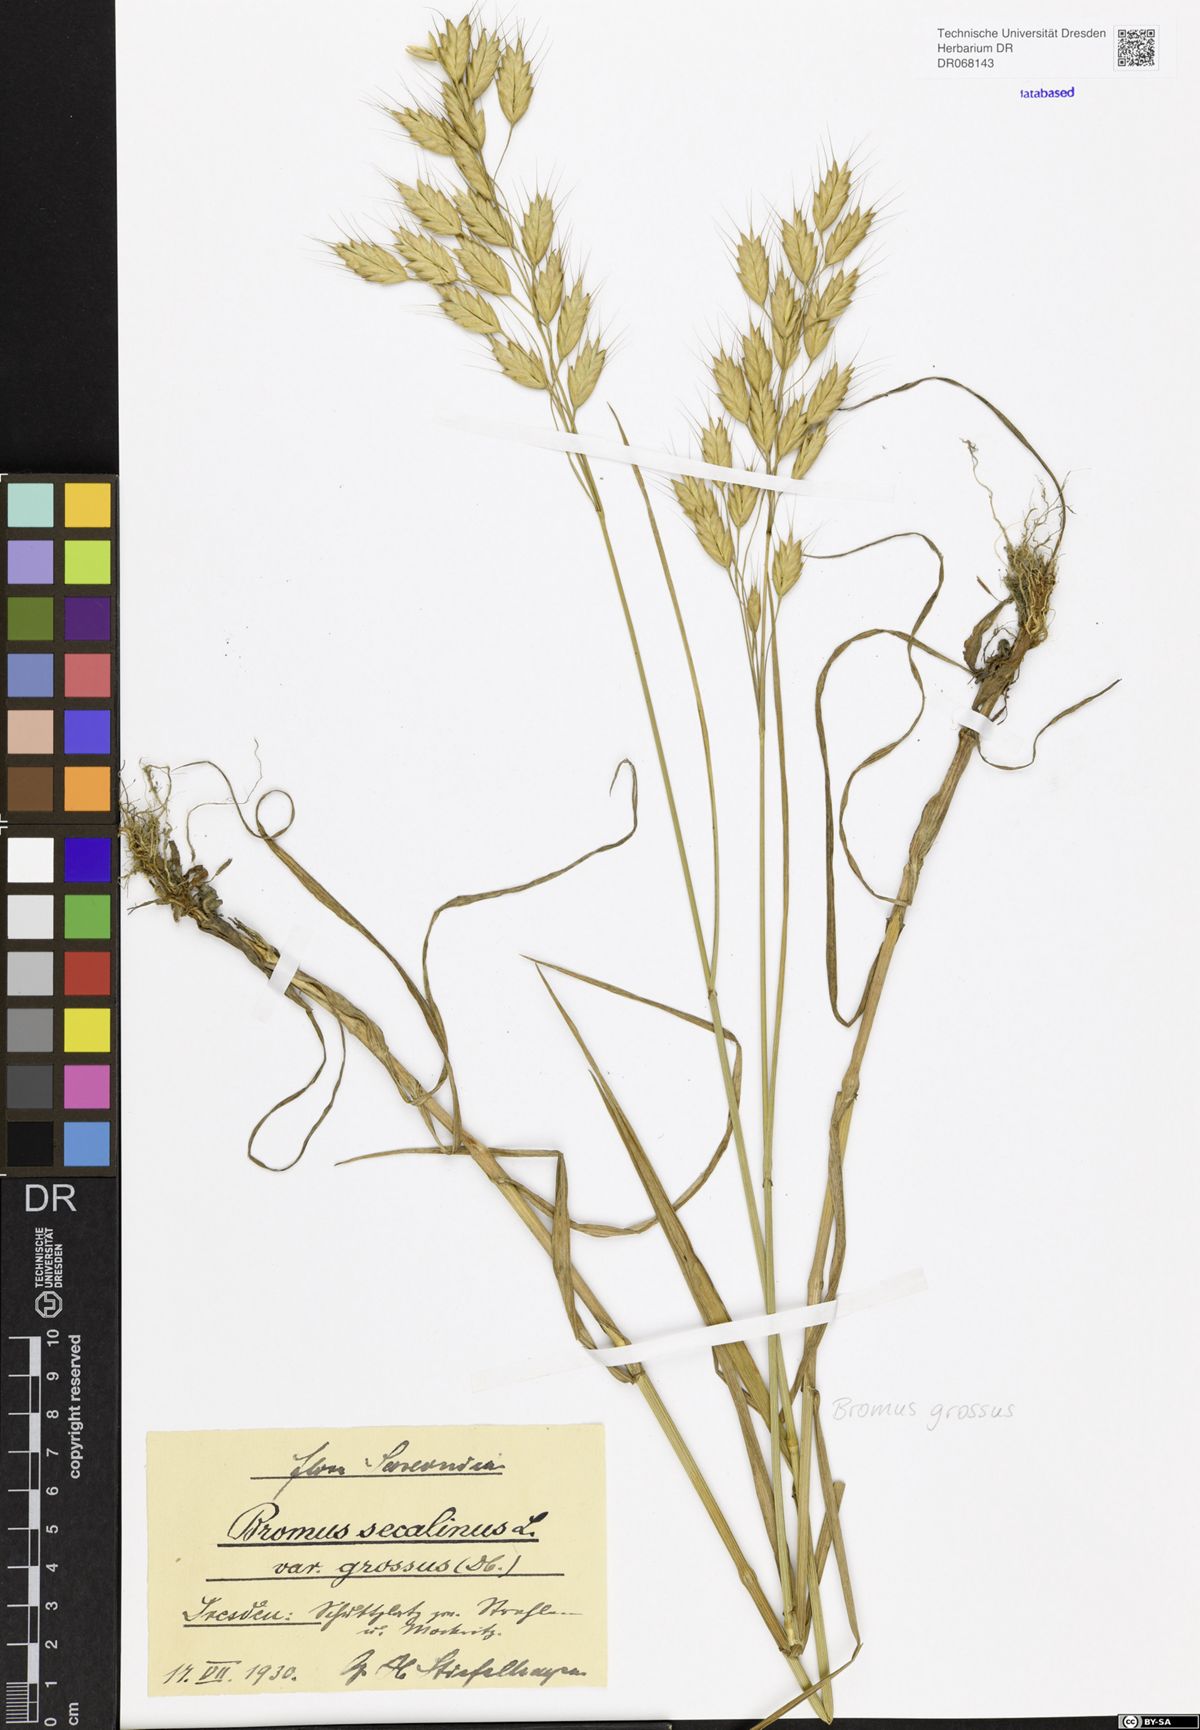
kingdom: Plantae
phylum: Tracheophyta
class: Liliopsida
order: Poales
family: Poaceae
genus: Bromus
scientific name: Bromus grossus
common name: Whiskered brome
